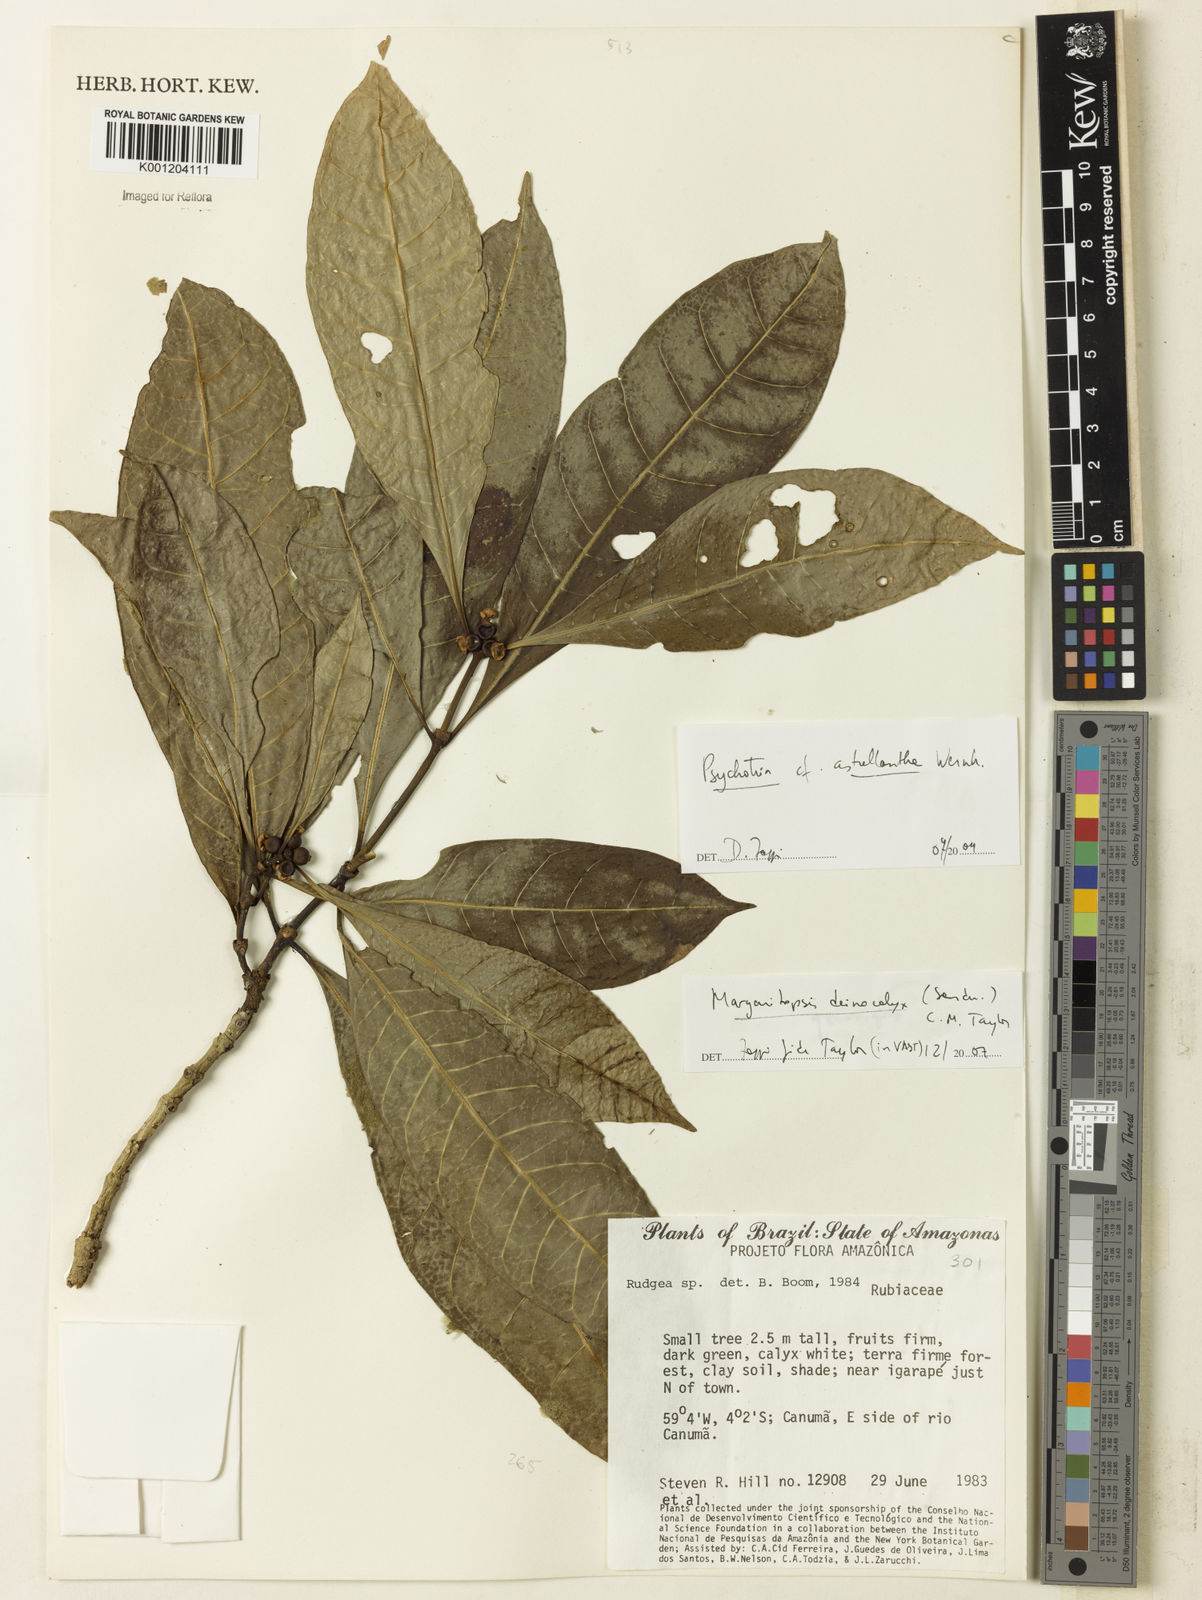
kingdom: Plantae
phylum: Tracheophyta
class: Magnoliopsida
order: Gentianales
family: Rubiaceae
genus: Eumachia
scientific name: Eumachia deinocalyx
